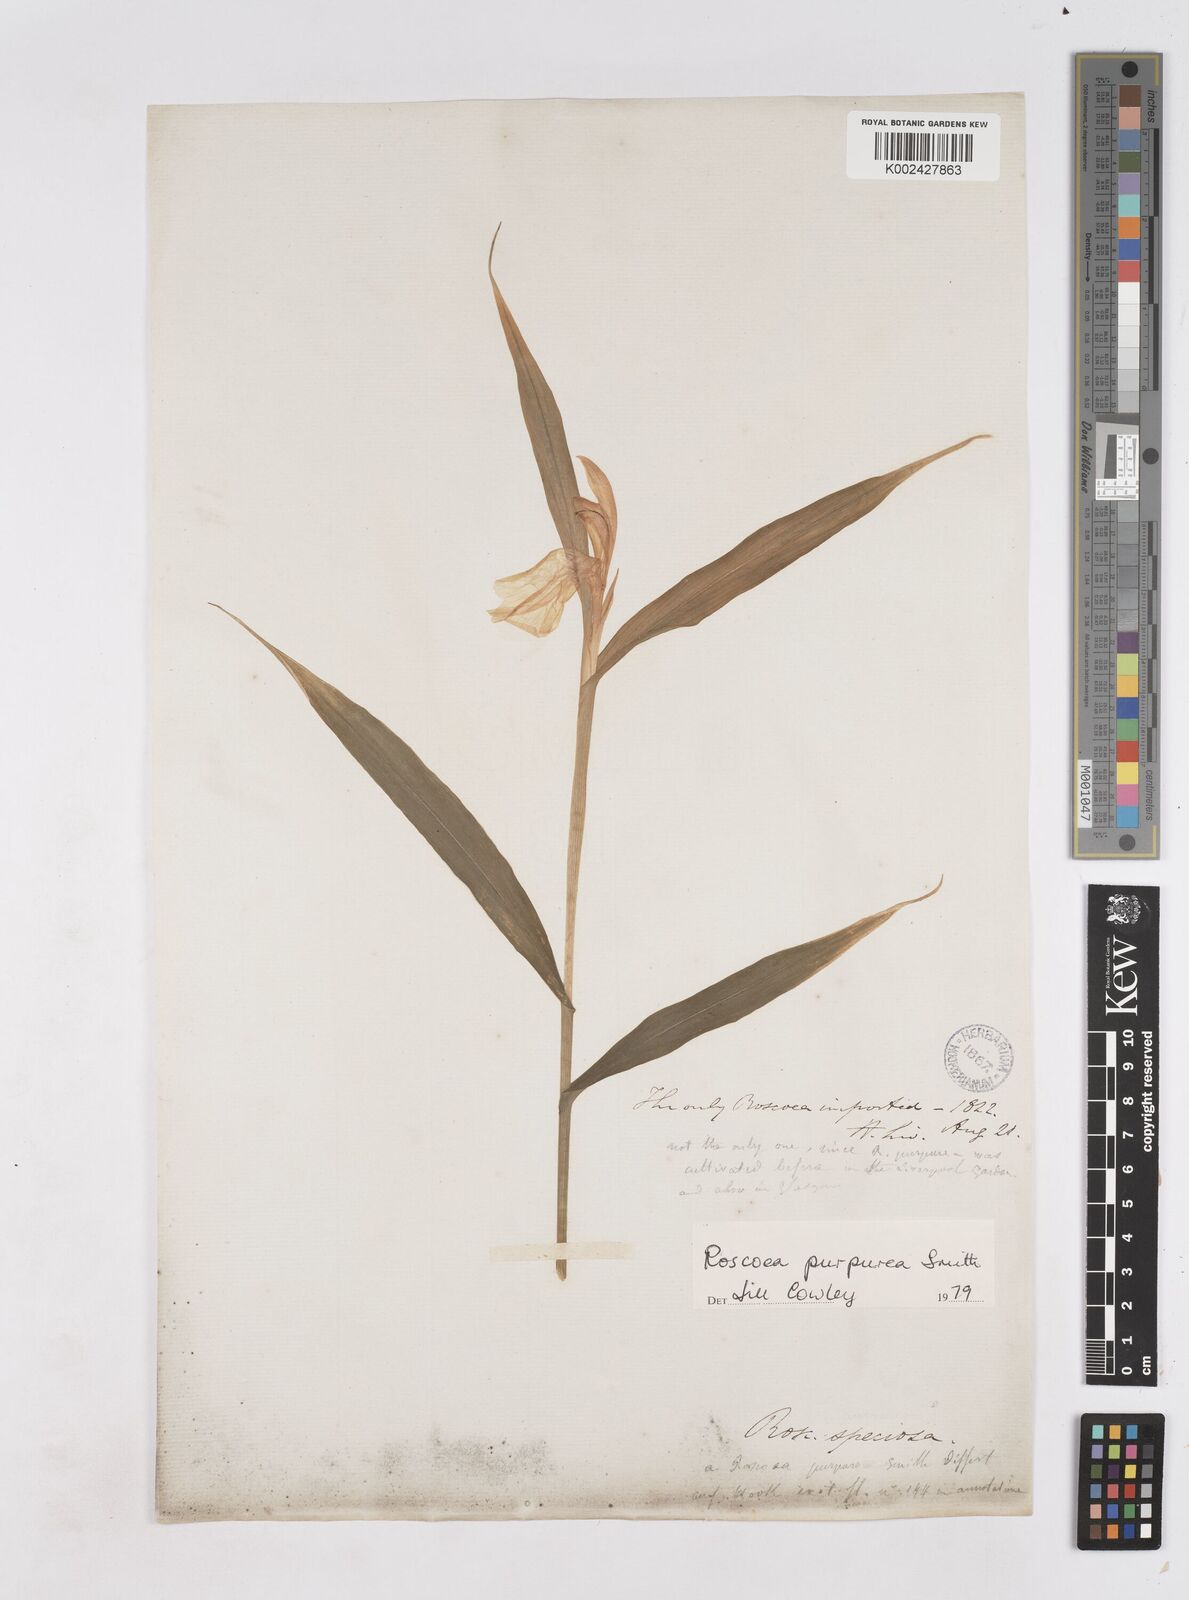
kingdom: Plantae
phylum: Tracheophyta
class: Liliopsida
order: Zingiberales
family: Zingiberaceae
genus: Roscoea
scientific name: Roscoea purpurea
